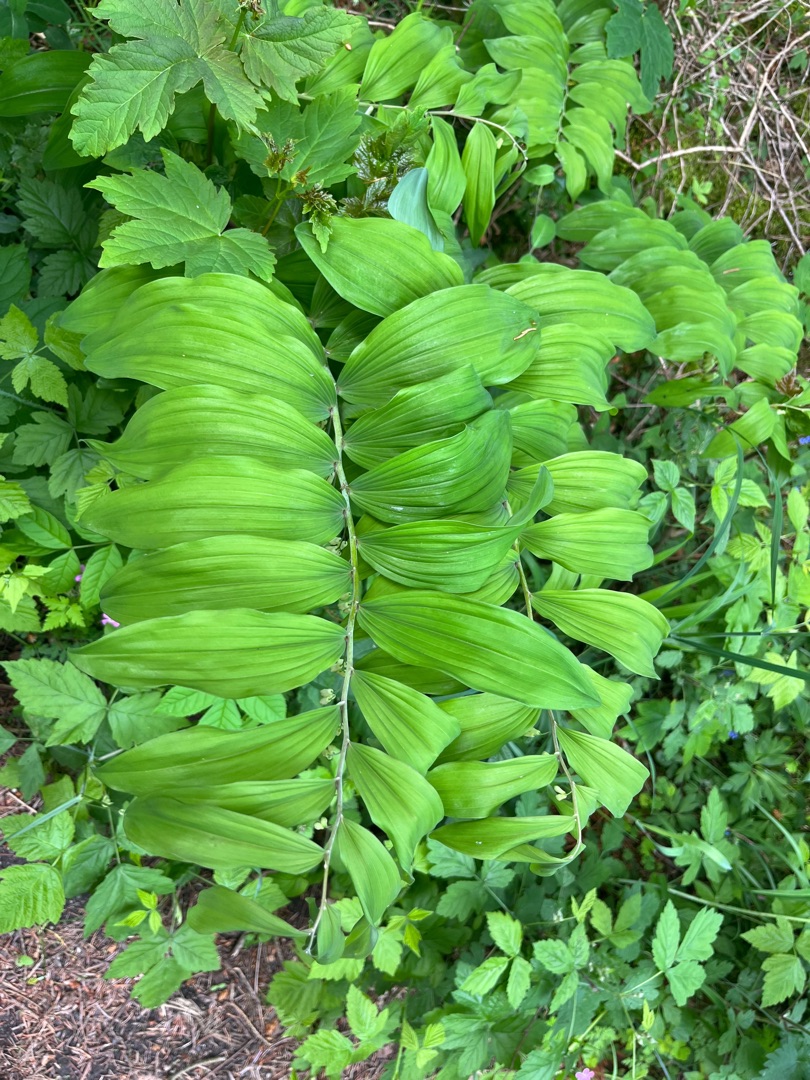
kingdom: Plantae
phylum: Tracheophyta
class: Liliopsida
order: Asparagales
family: Asparagaceae
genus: Polygonatum
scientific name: Polygonatum multiflorum
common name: Stor konval
